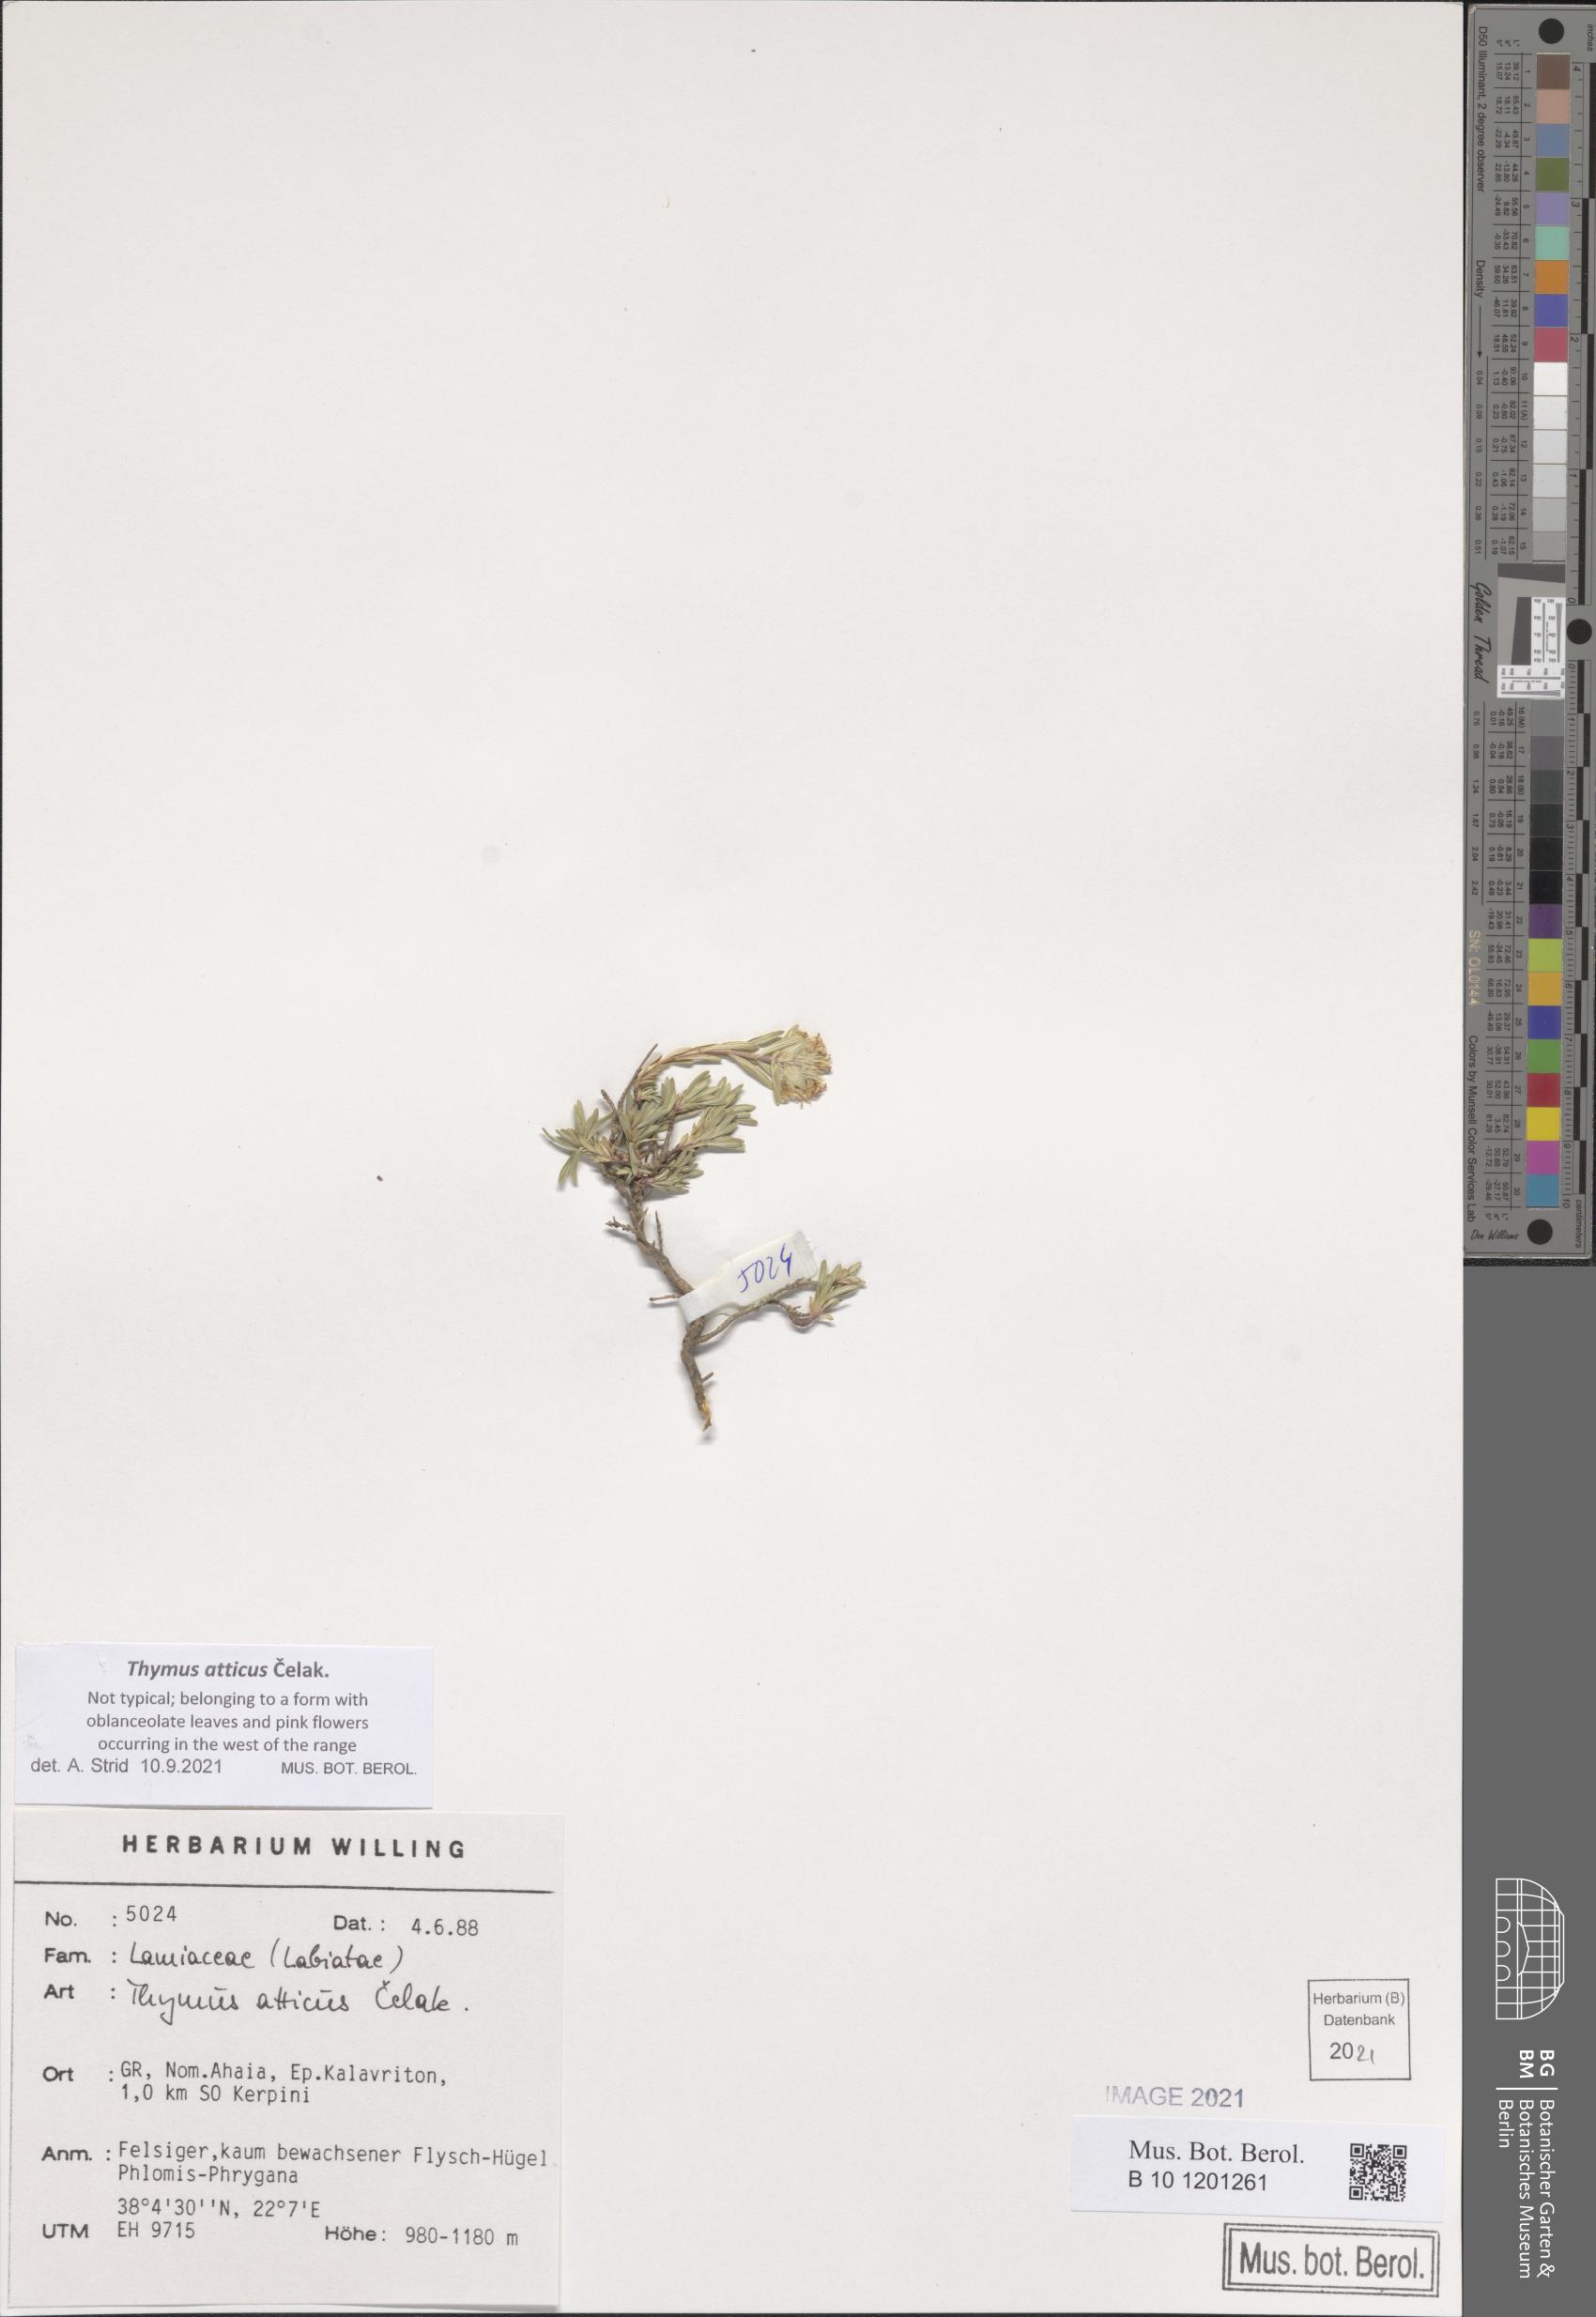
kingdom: Plantae
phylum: Tracheophyta
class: Magnoliopsida
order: Lamiales
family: Lamiaceae
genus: Thymus
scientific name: Thymus atticus
